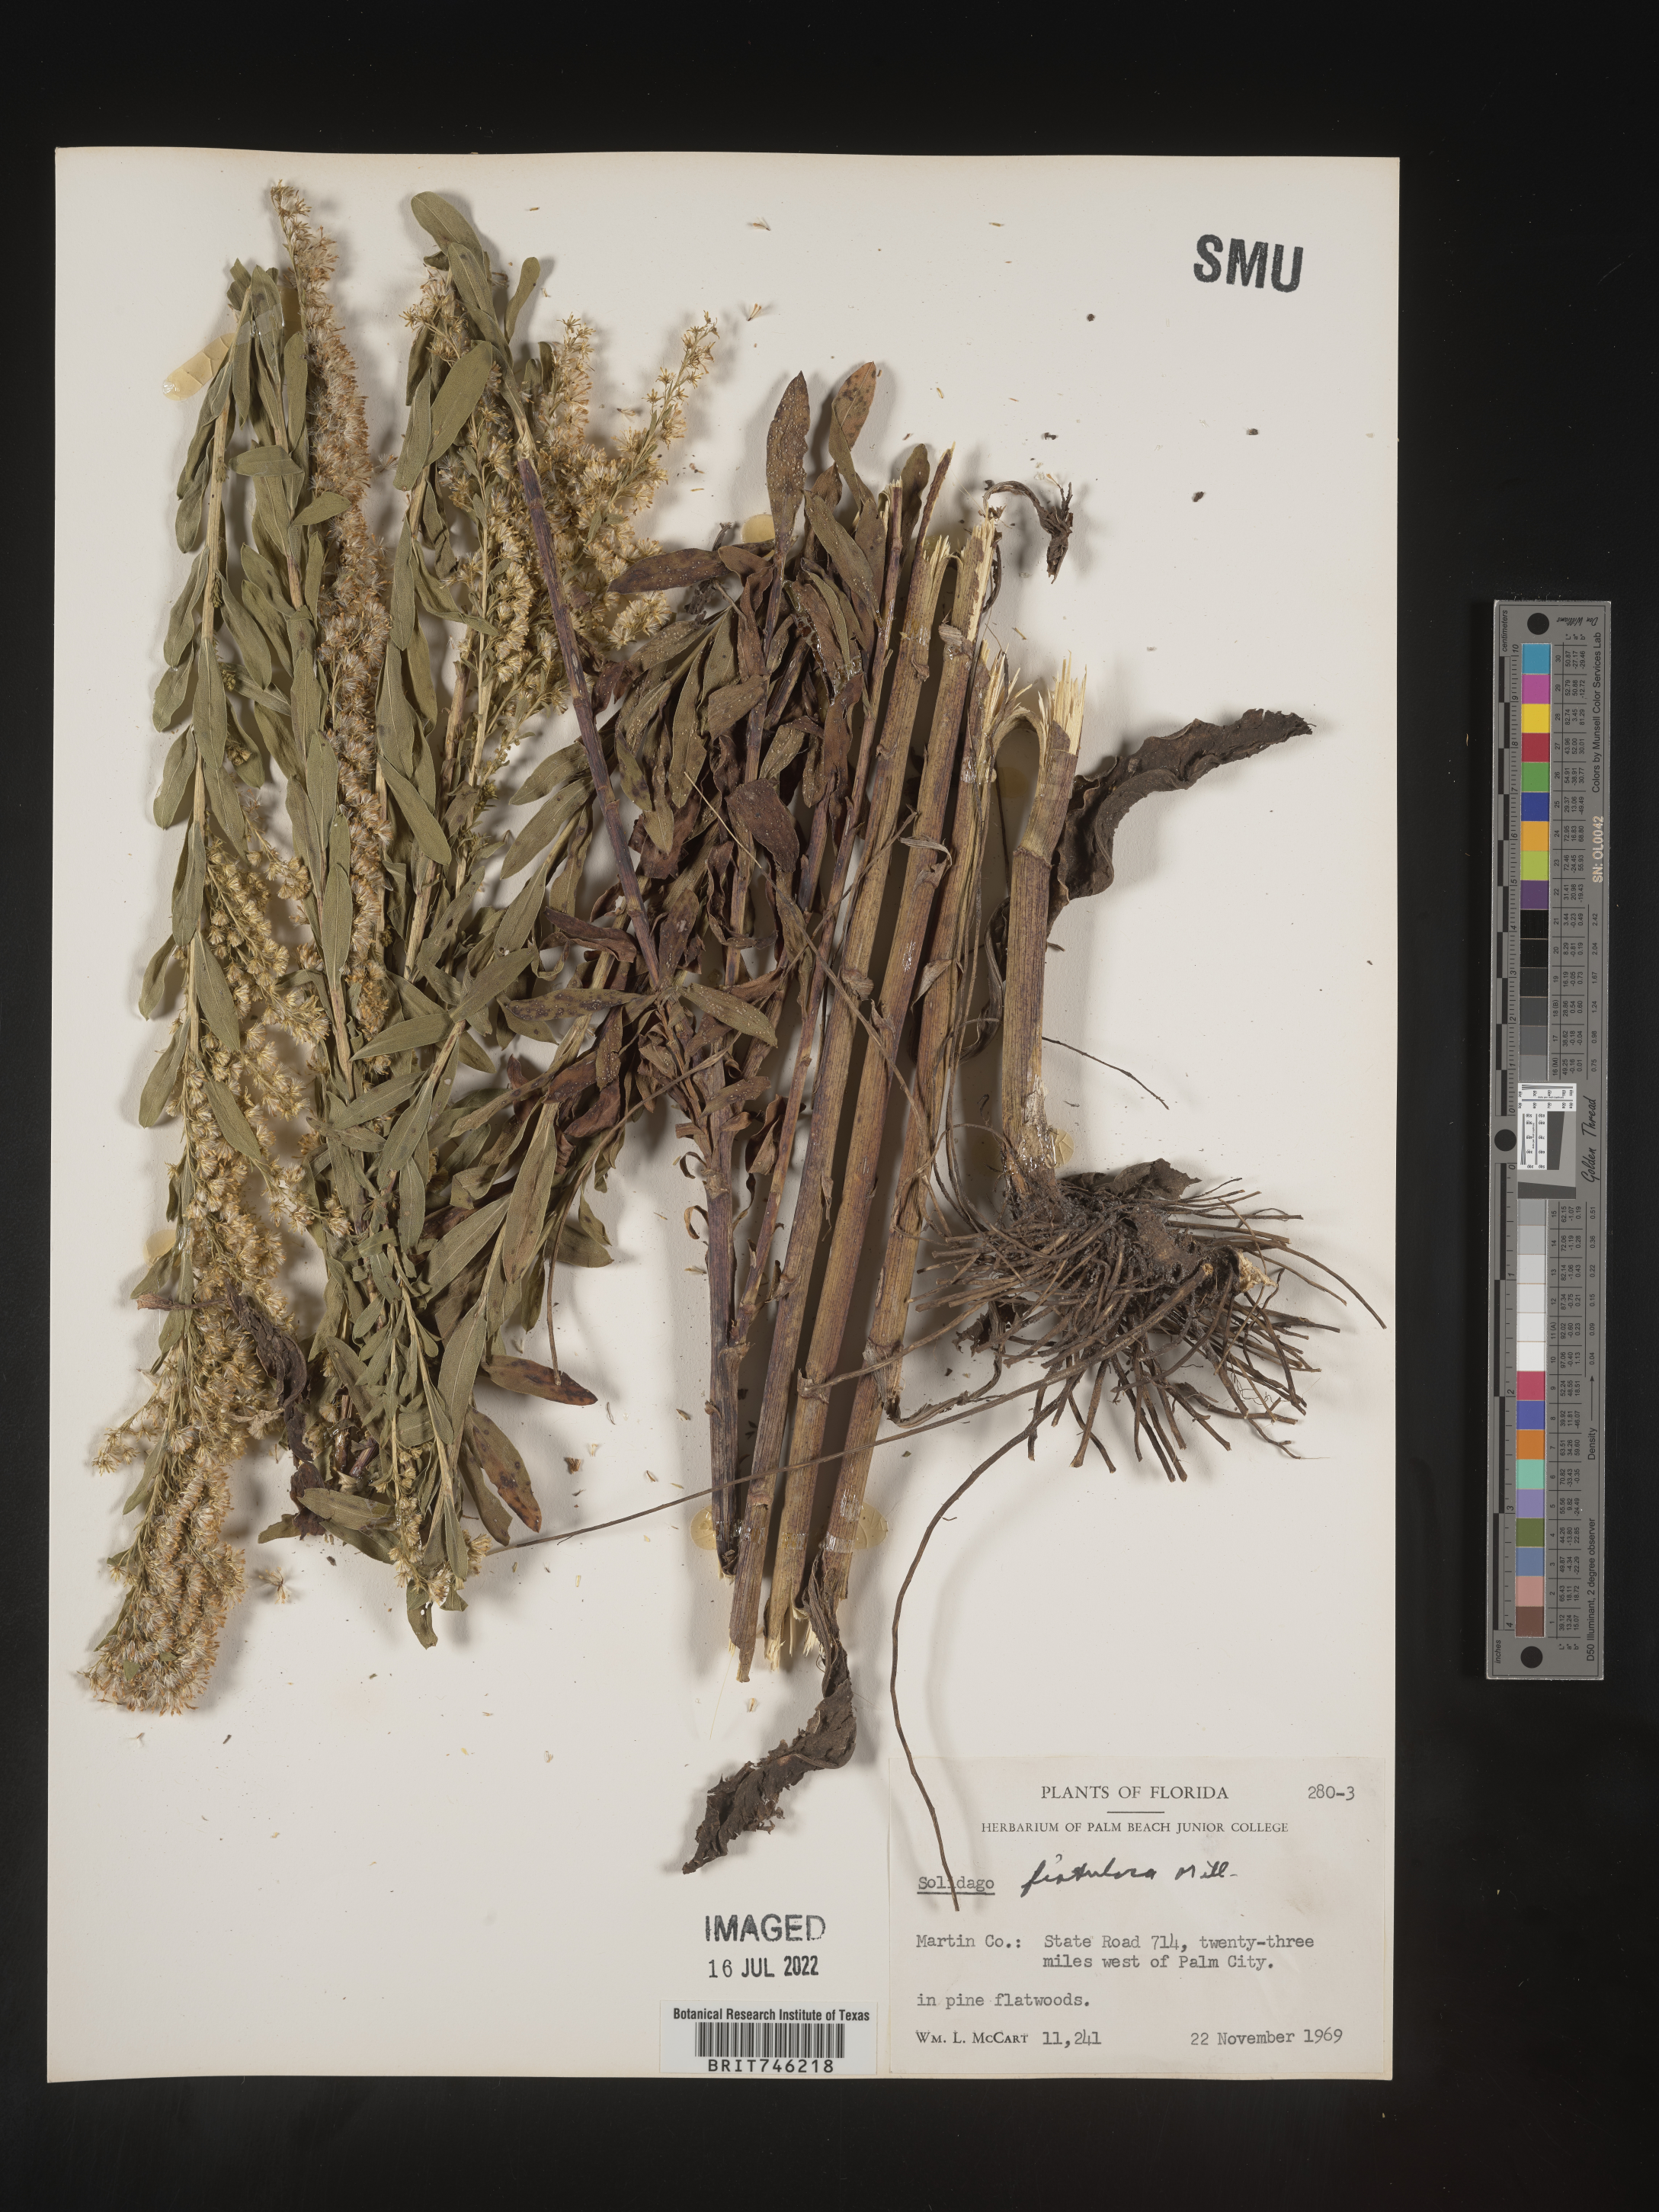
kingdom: Plantae
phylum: Tracheophyta
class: Magnoliopsida
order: Asterales
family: Asteraceae
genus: Solidago
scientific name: Solidago fistulosa
